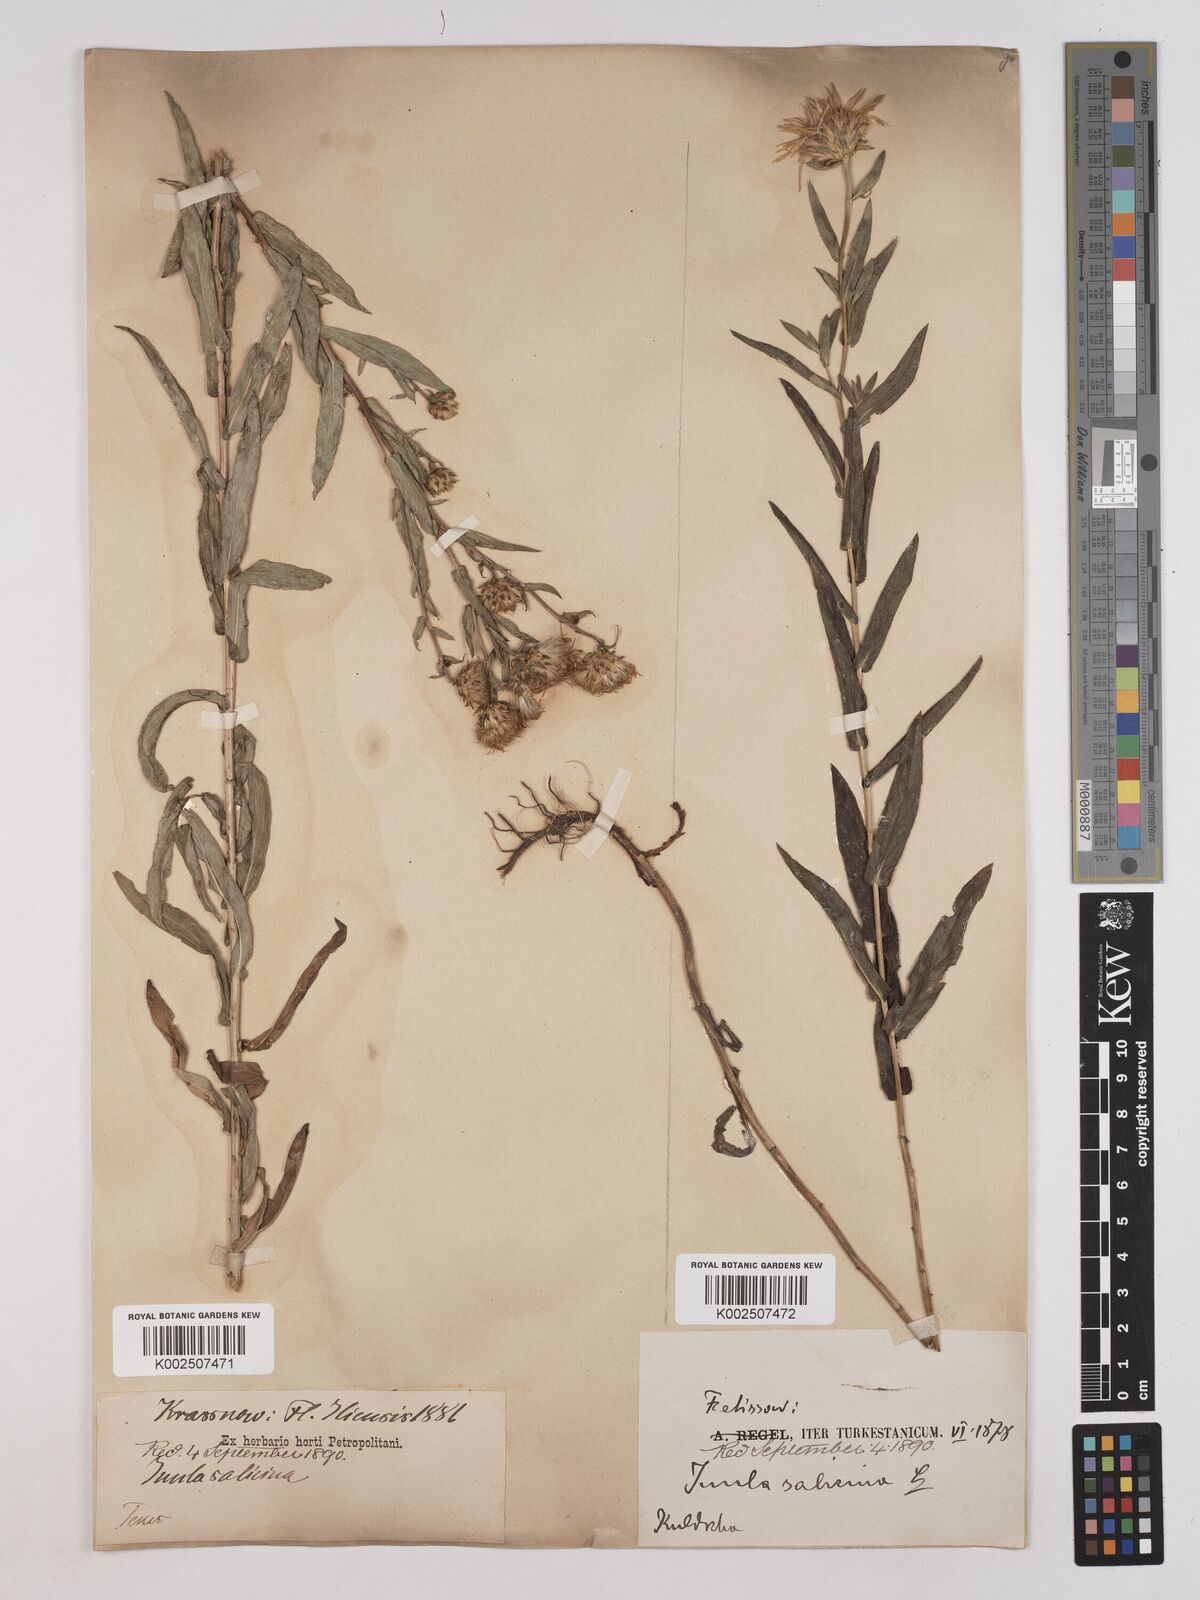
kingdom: Plantae
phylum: Tracheophyta
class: Magnoliopsida
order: Asterales
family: Asteraceae
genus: Pentanema
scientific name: Pentanema salicinum
